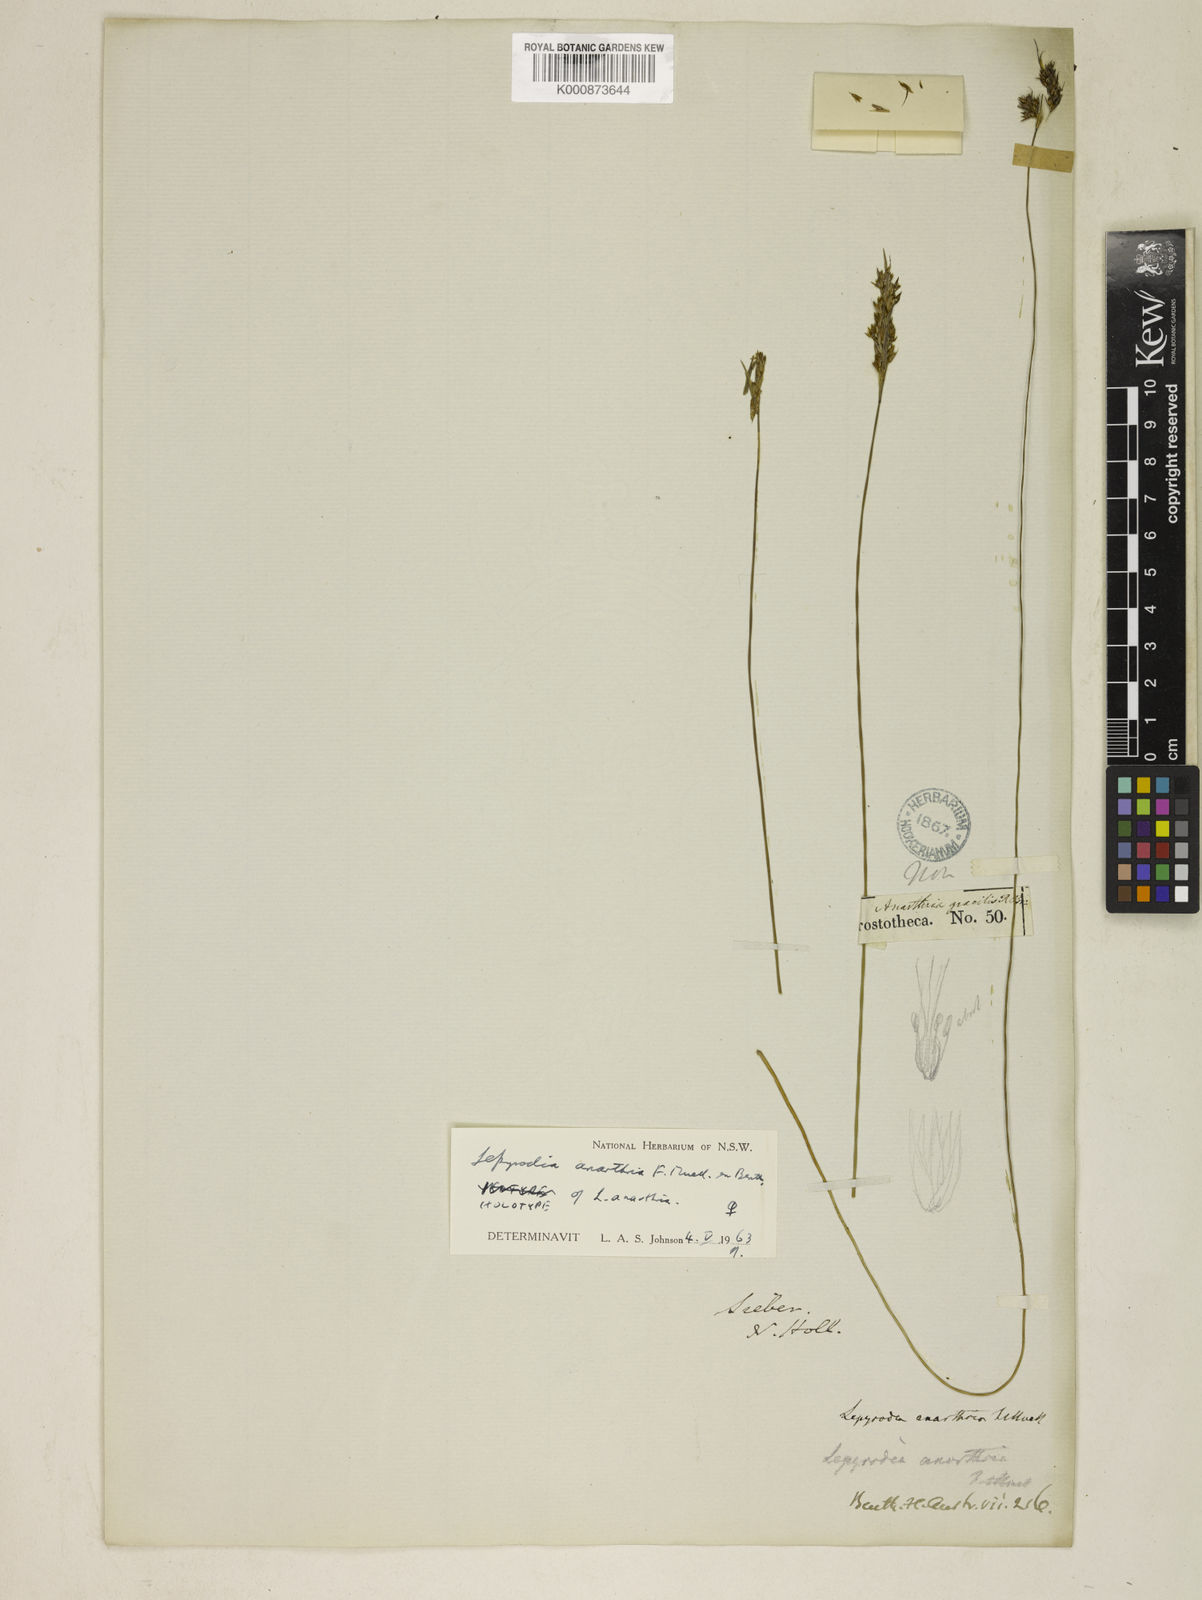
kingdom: Plantae
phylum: Tracheophyta
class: Liliopsida
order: Poales
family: Restionaceae
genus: Lepyrodia
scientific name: Lepyrodia anarthria
